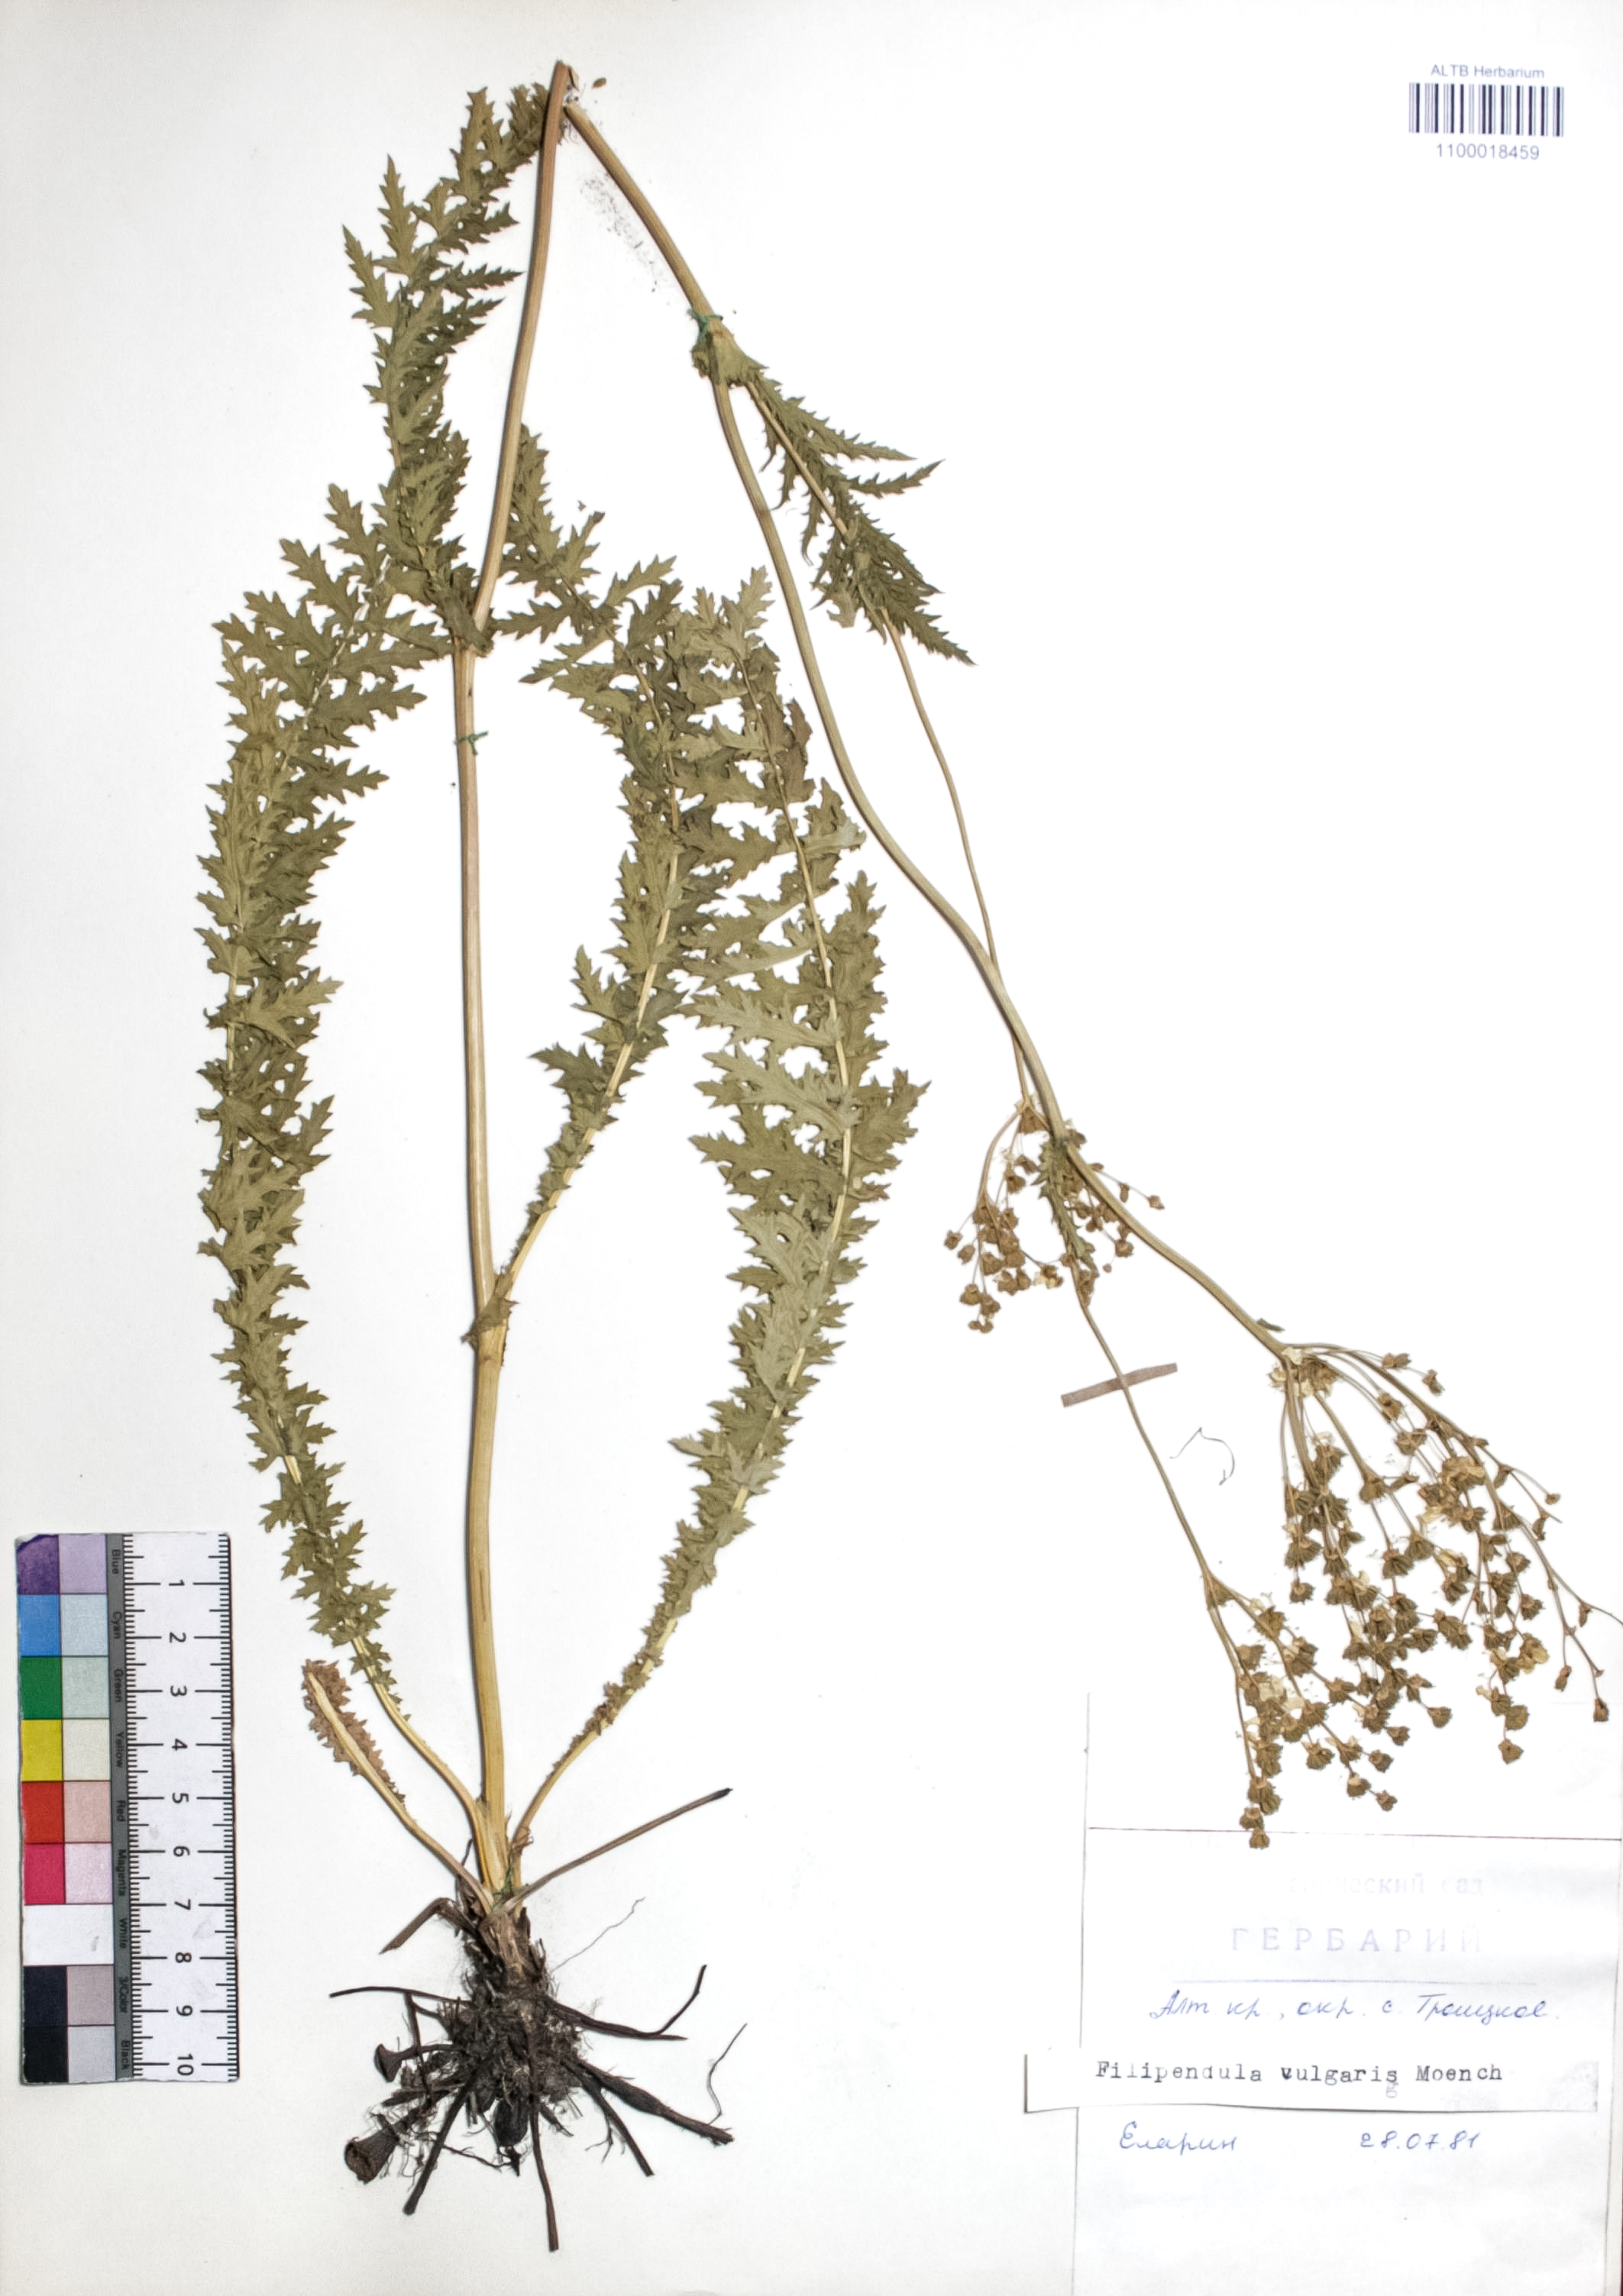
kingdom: Plantae
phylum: Tracheophyta
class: Magnoliopsida
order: Rosales
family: Rosaceae
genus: Filipendula
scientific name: Filipendula vulgaris
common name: Dropwort
